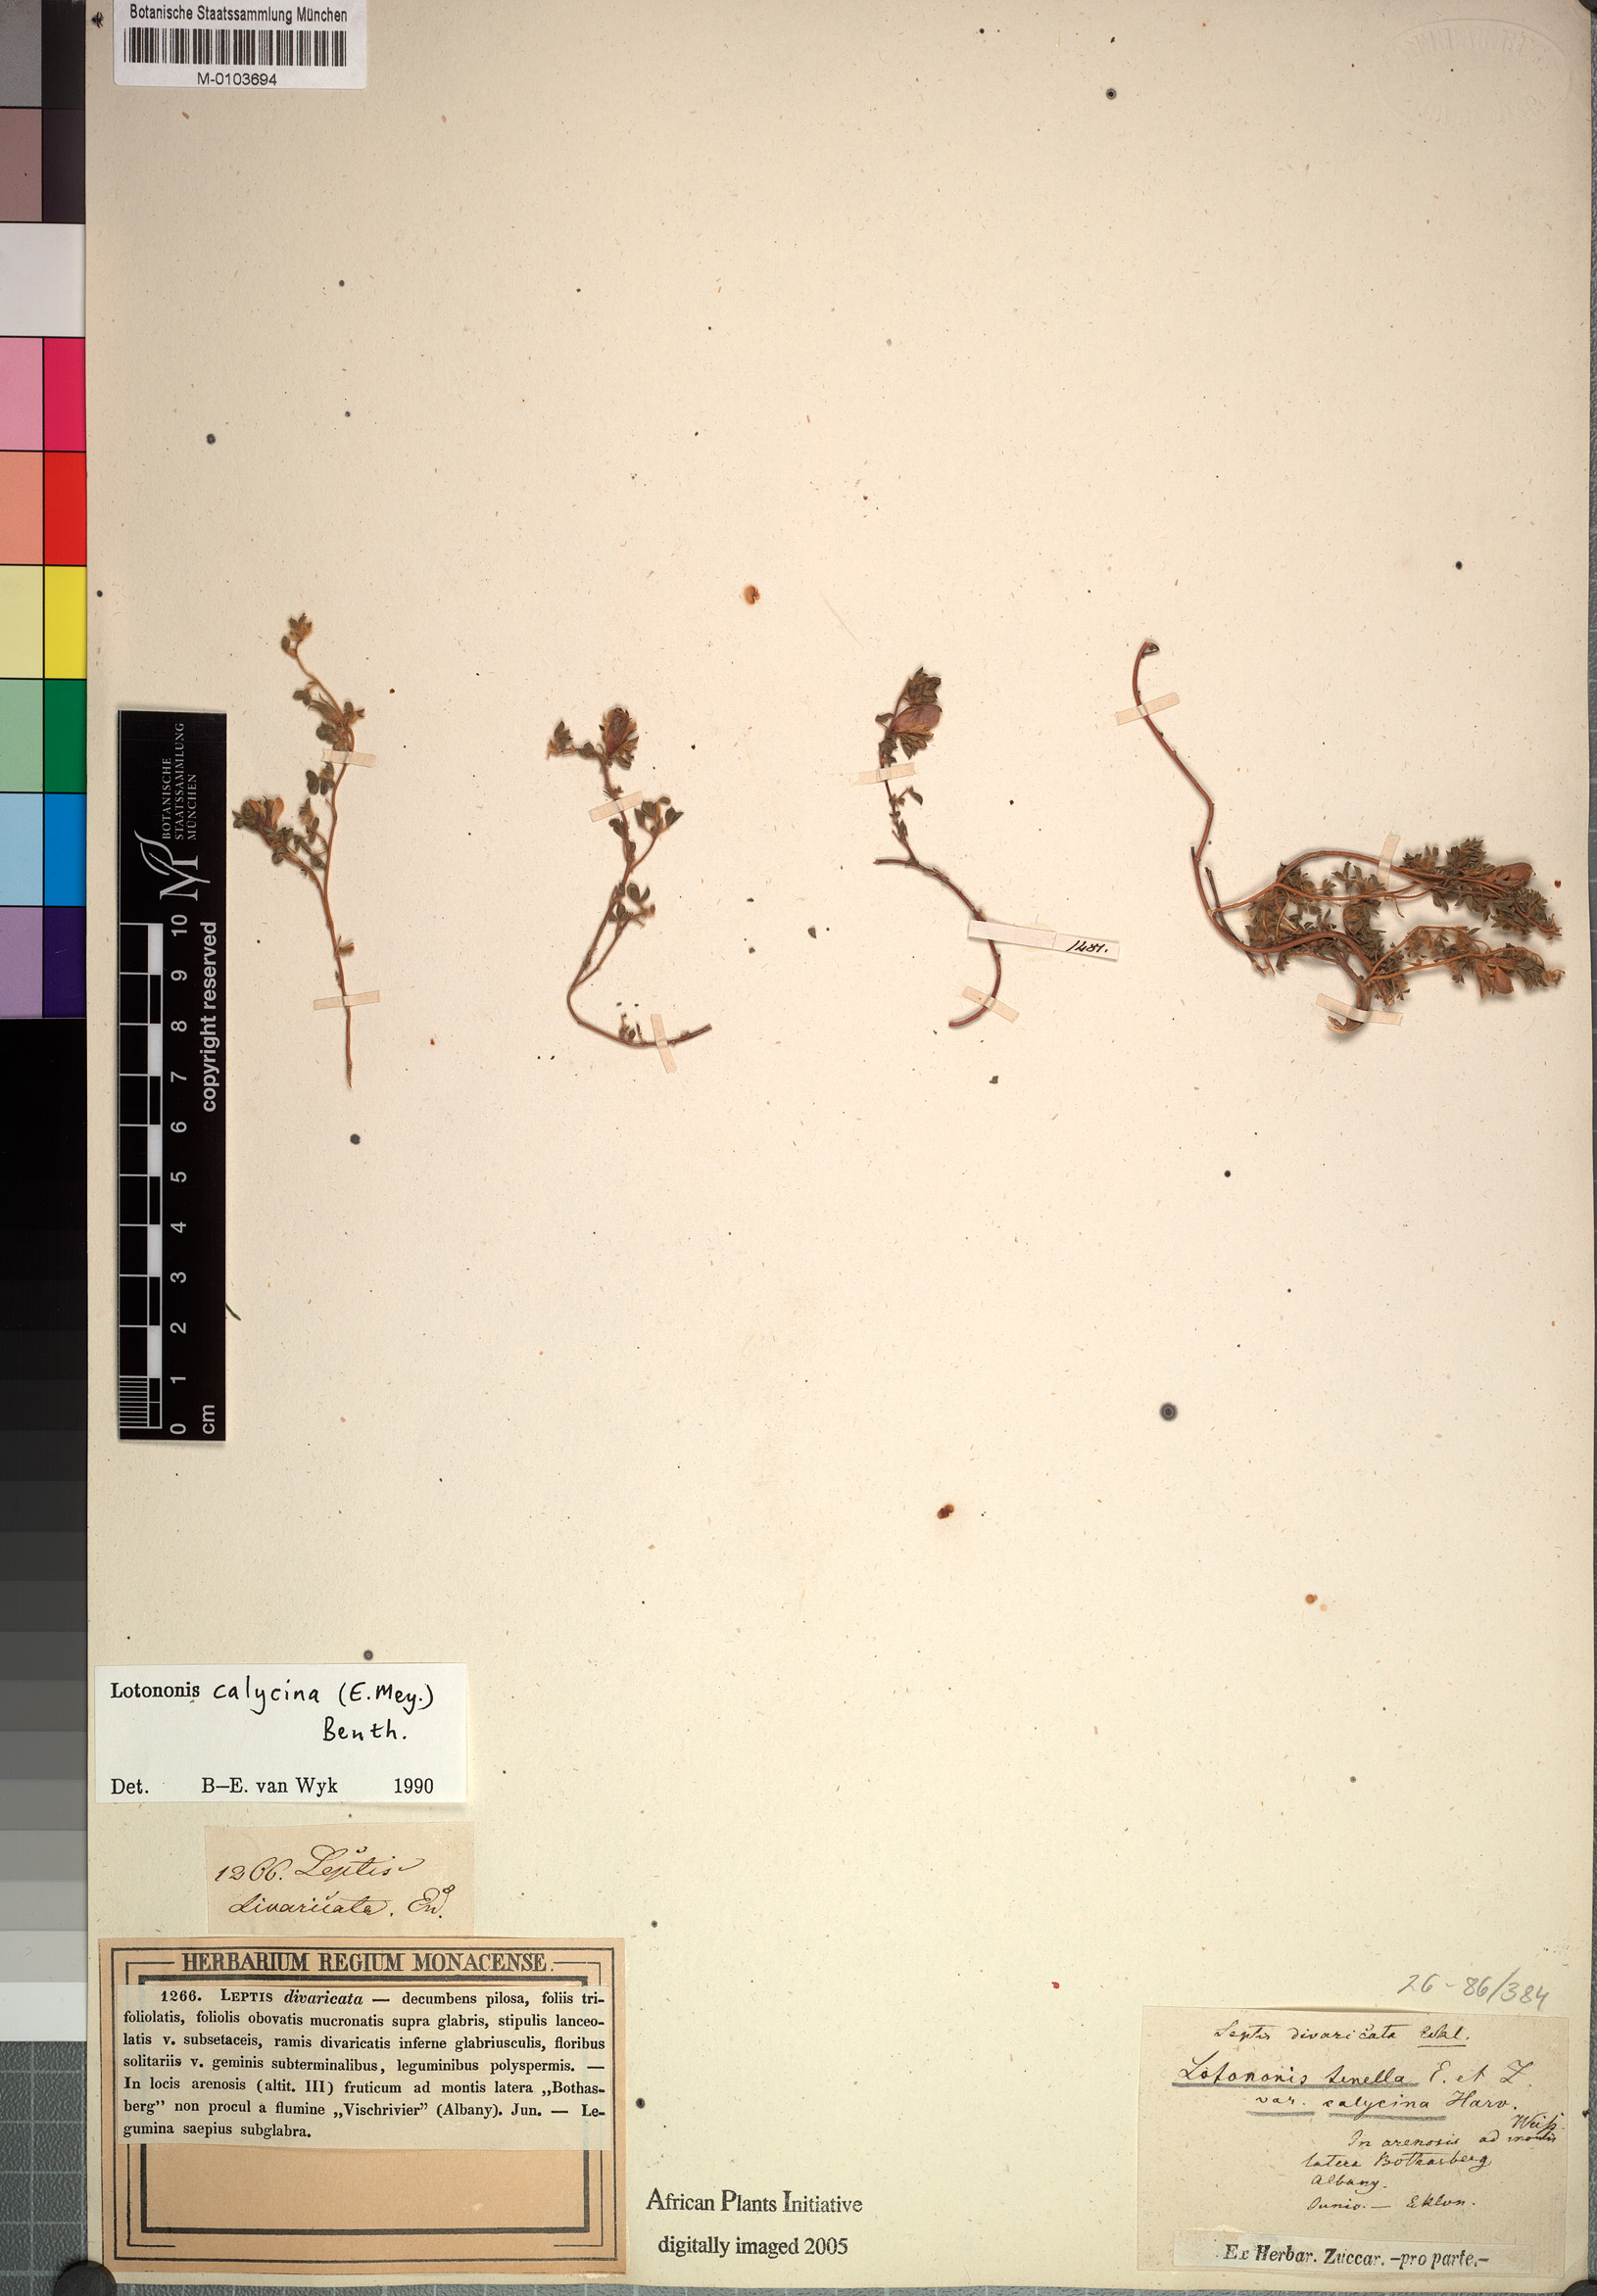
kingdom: Plantae
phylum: Tracheophyta
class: Magnoliopsida
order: Fabales
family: Fabaceae
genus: Leobordea
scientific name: Leobordea divaricata
